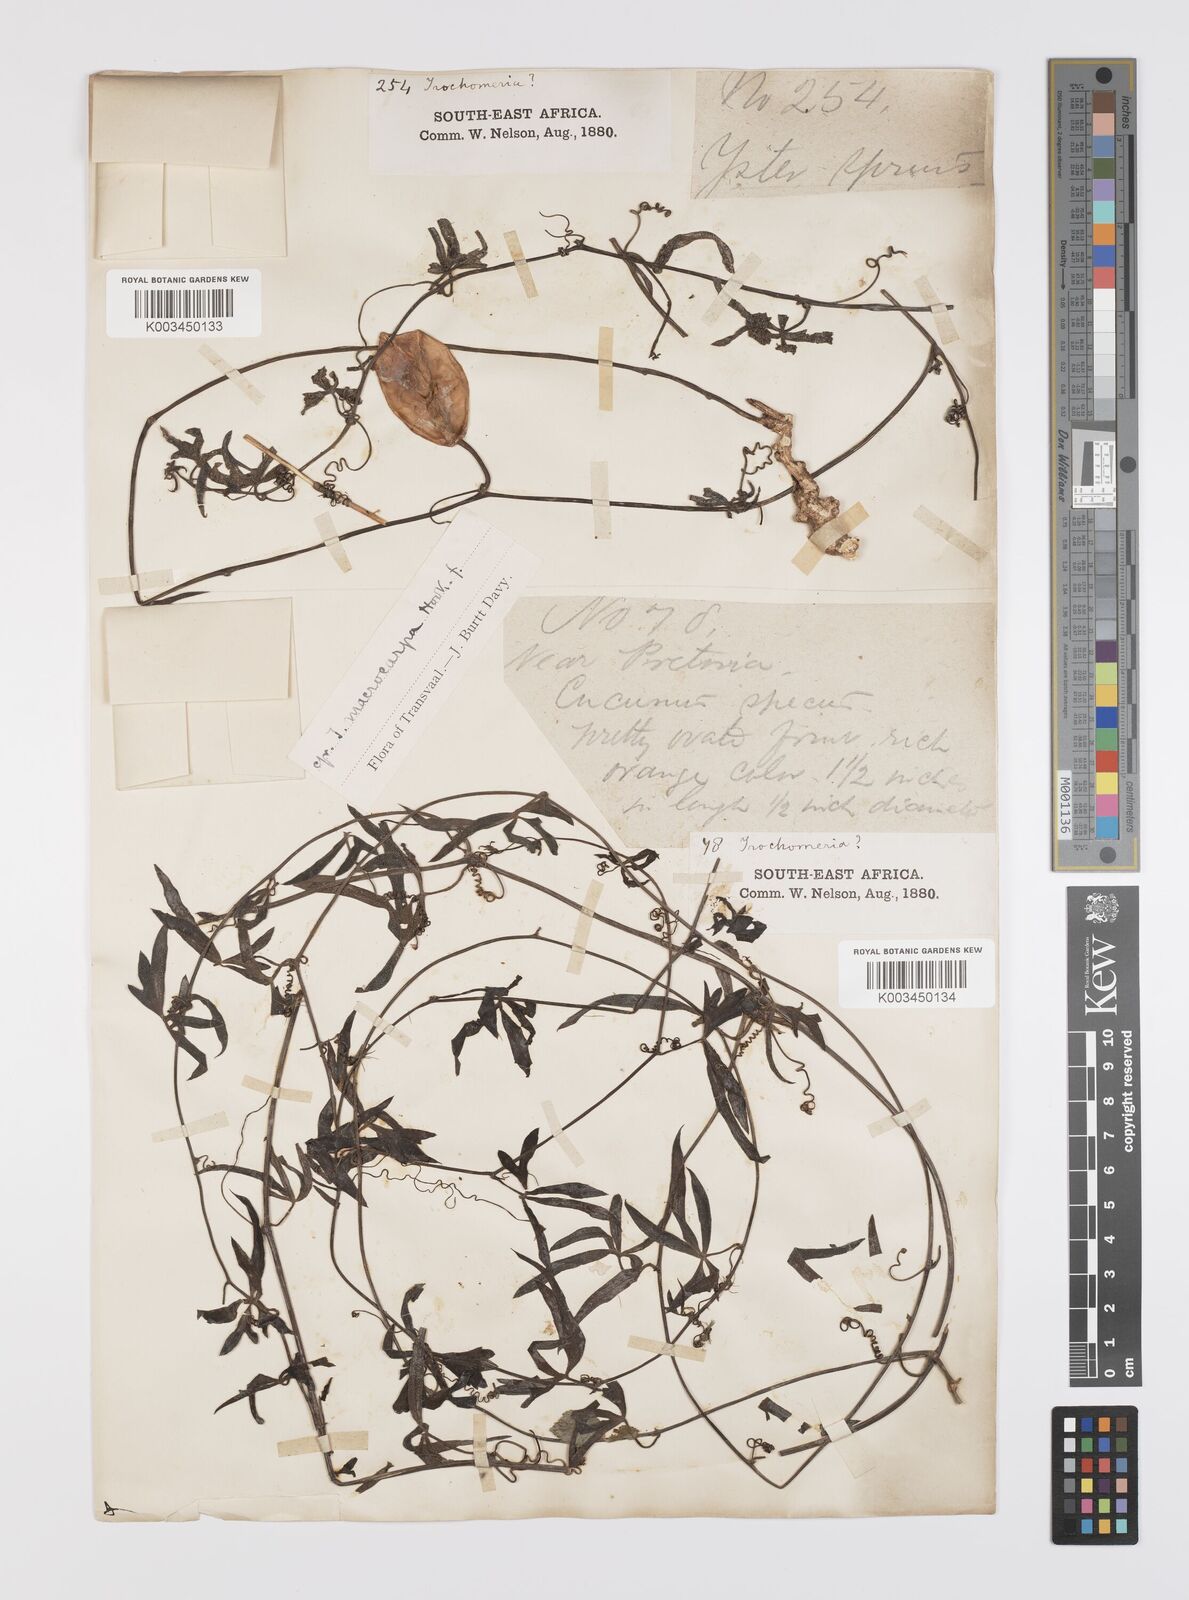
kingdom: Plantae
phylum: Tracheophyta
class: Magnoliopsida
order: Cucurbitales
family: Cucurbitaceae
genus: Trochomeria
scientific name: Trochomeria macrocarpa
